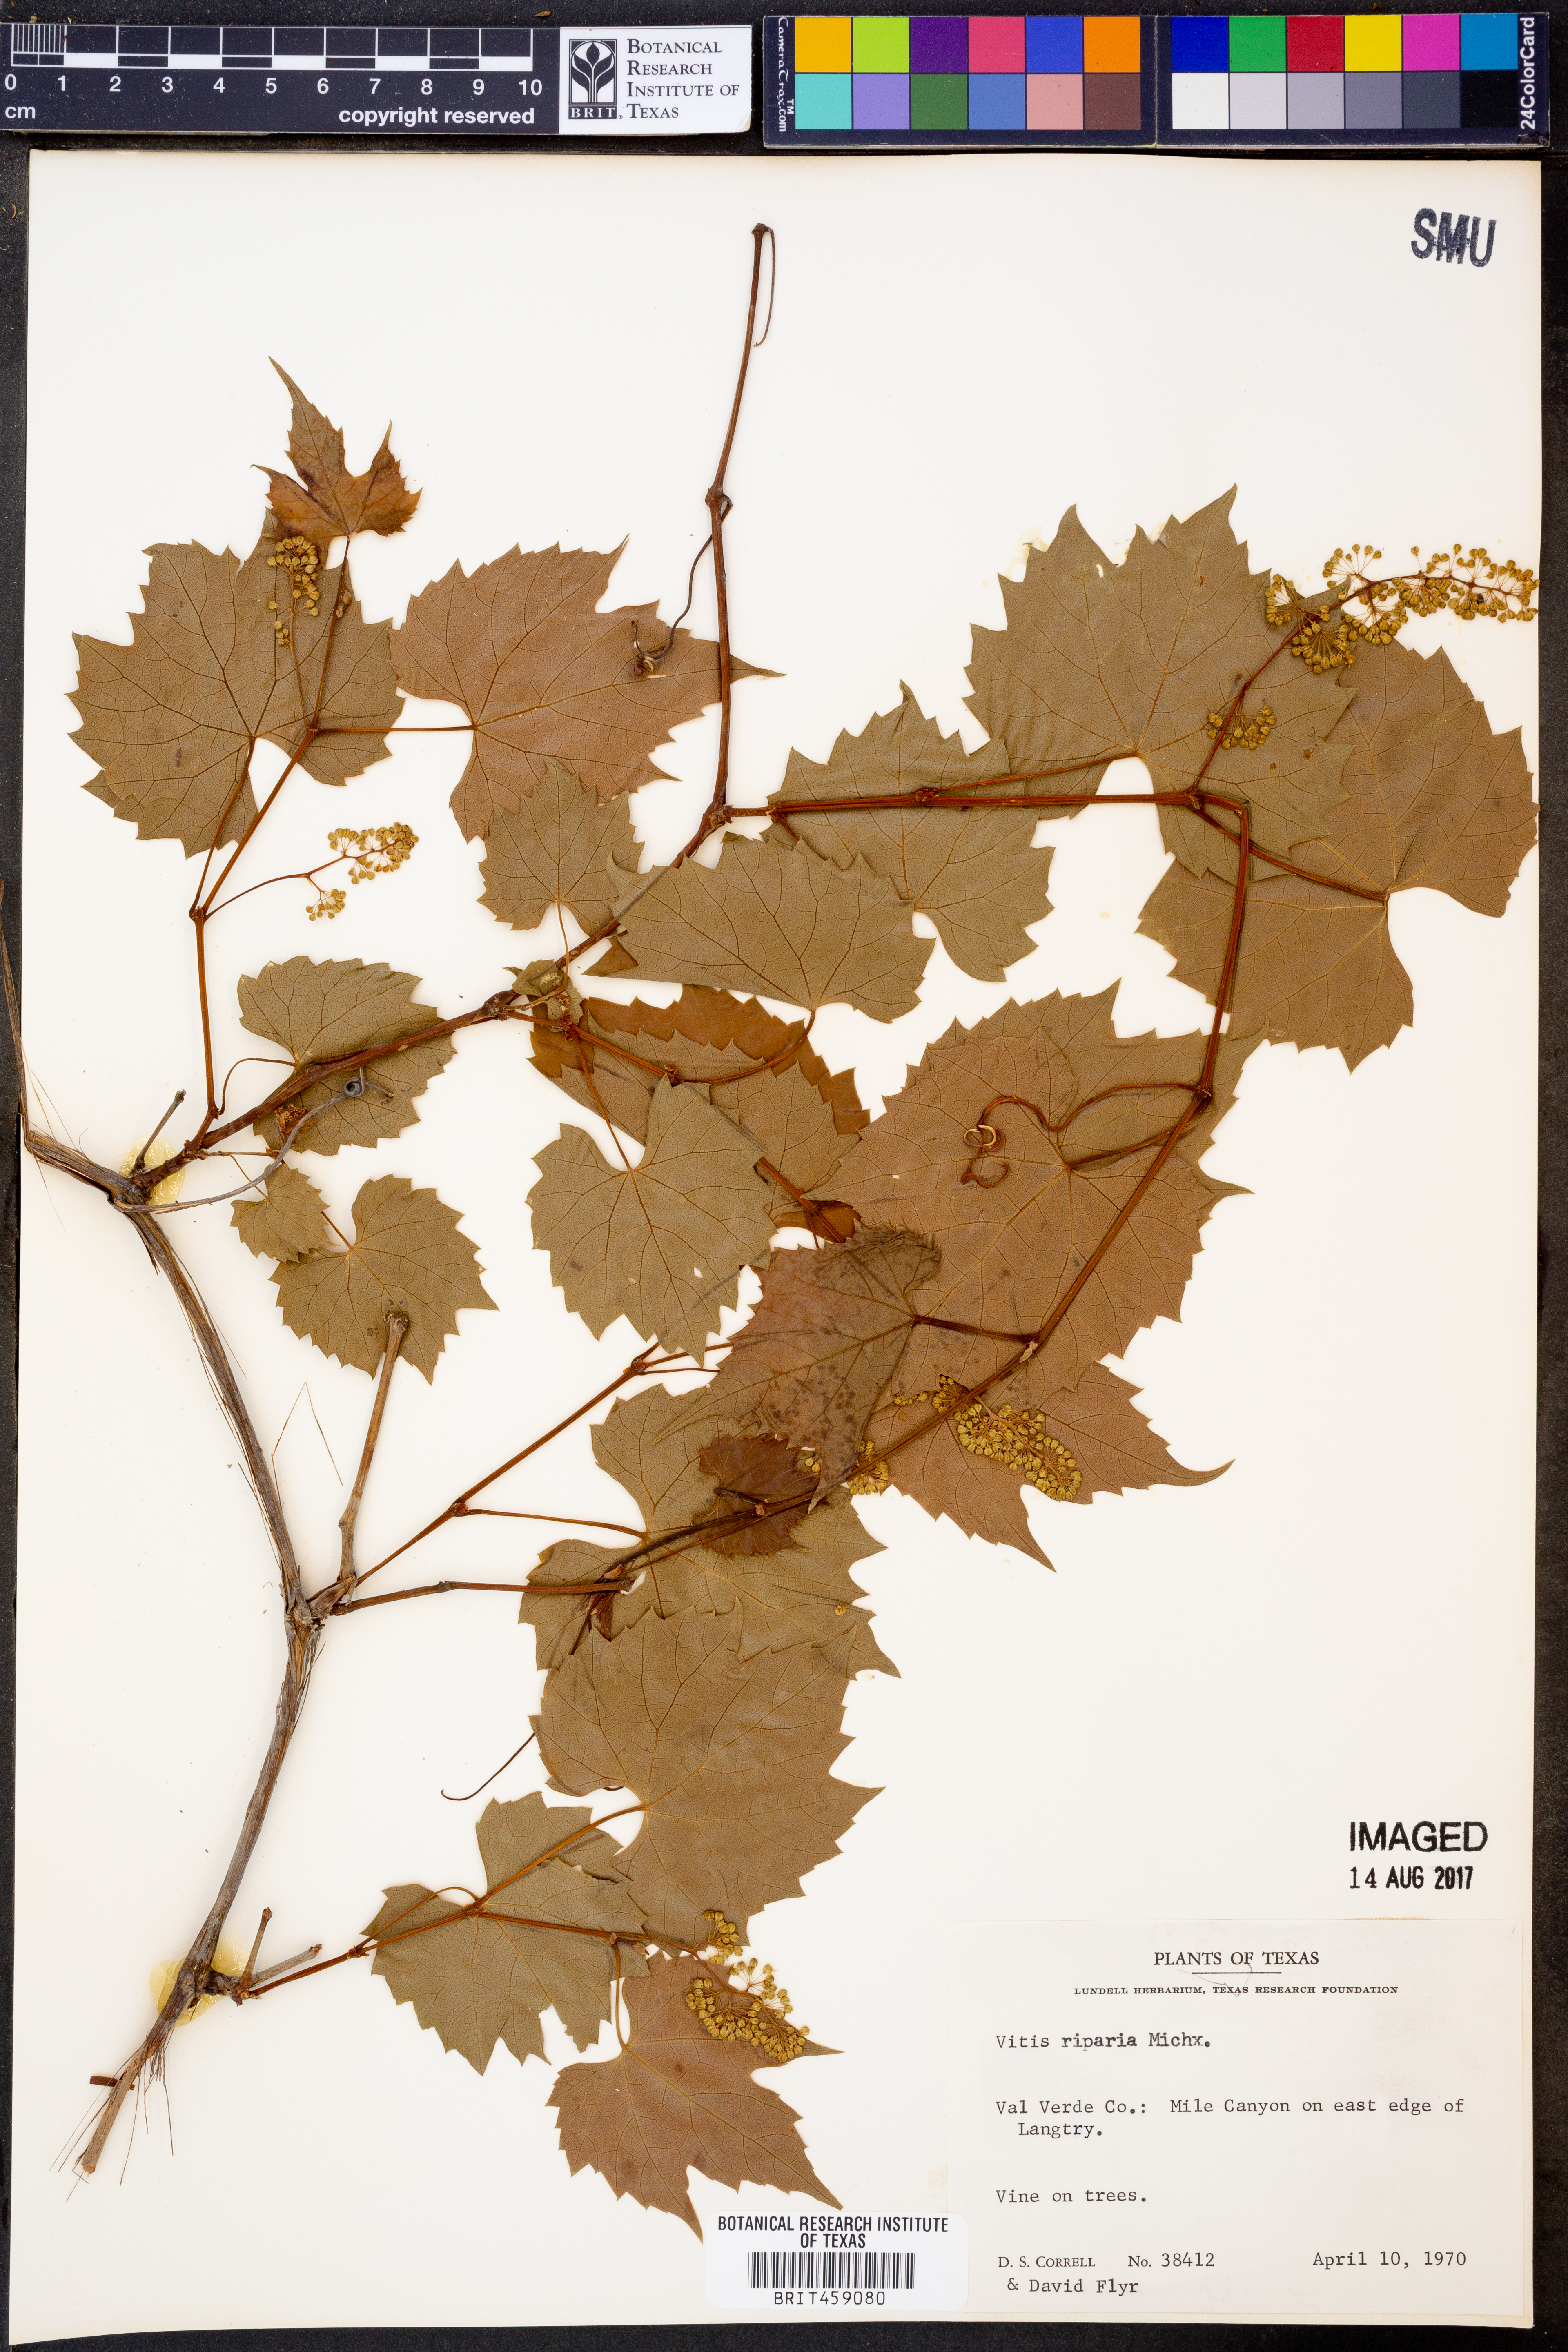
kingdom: Plantae
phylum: Tracheophyta
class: Magnoliopsida
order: Vitales
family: Vitaceae
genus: Vitis
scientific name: Vitis riparia
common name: Frost grape
